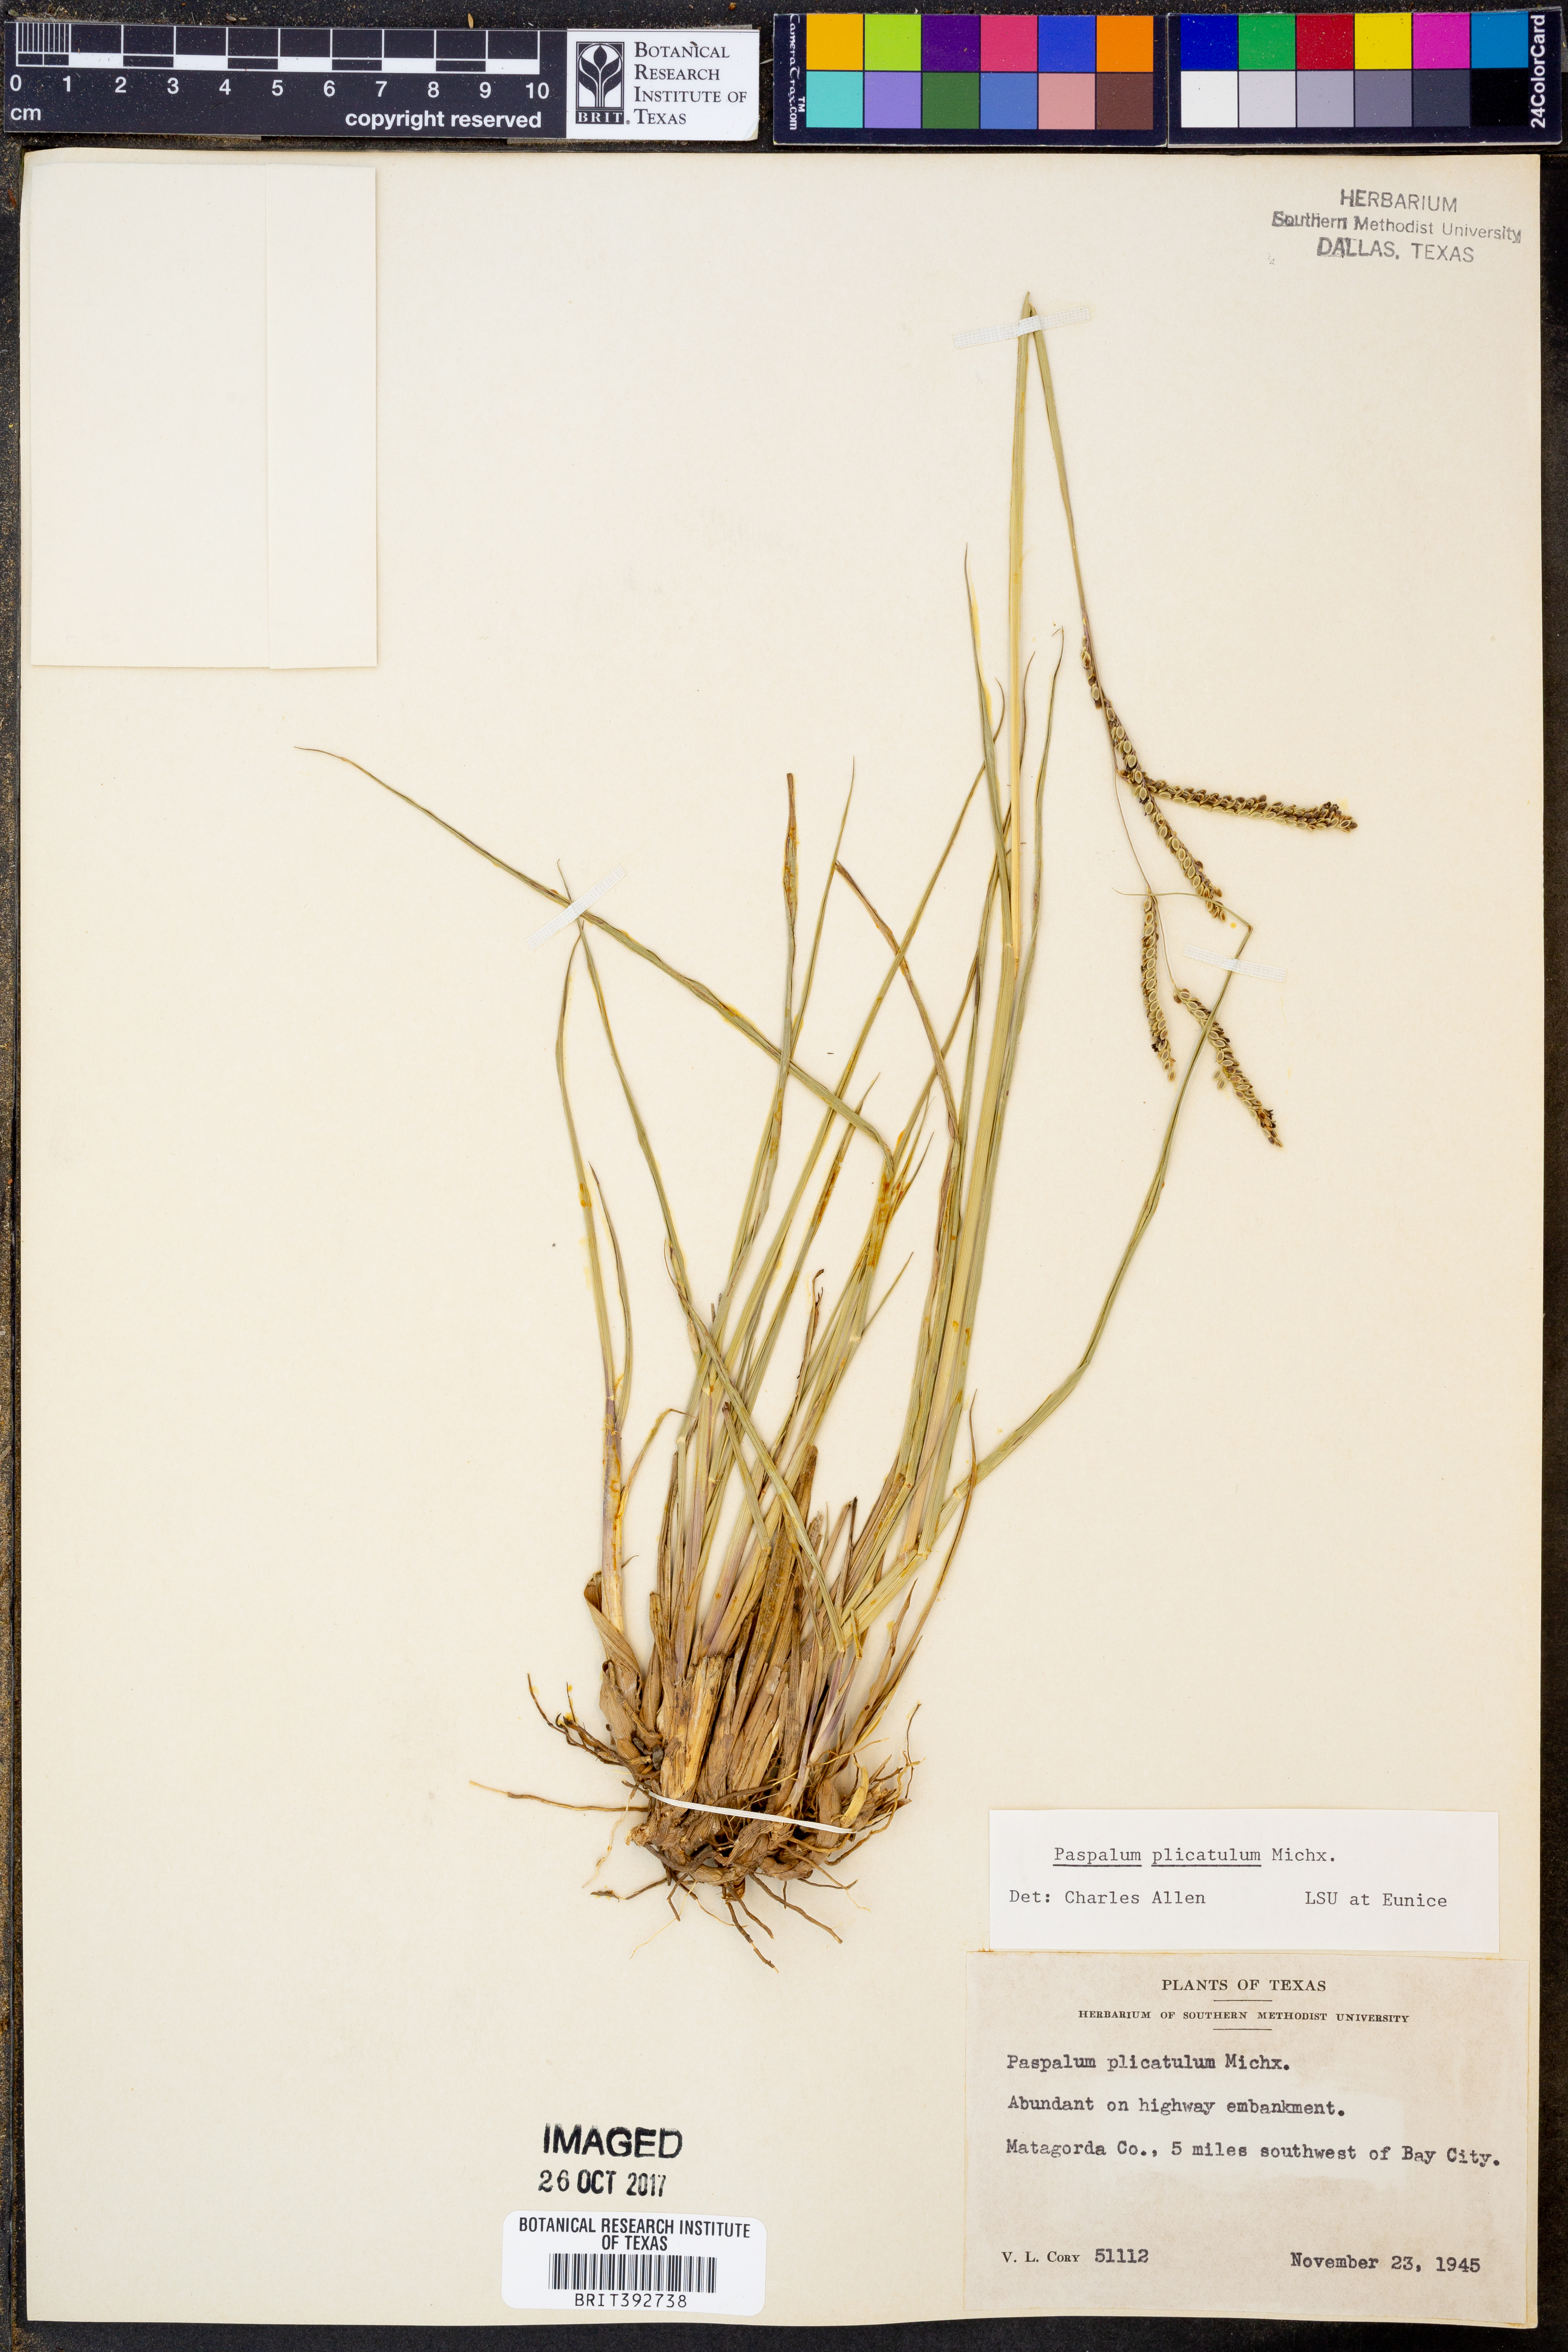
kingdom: Plantae
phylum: Tracheophyta
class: Liliopsida
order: Poales
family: Poaceae
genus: Paspalum
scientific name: Paspalum plicatulum
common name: Top paspalum
